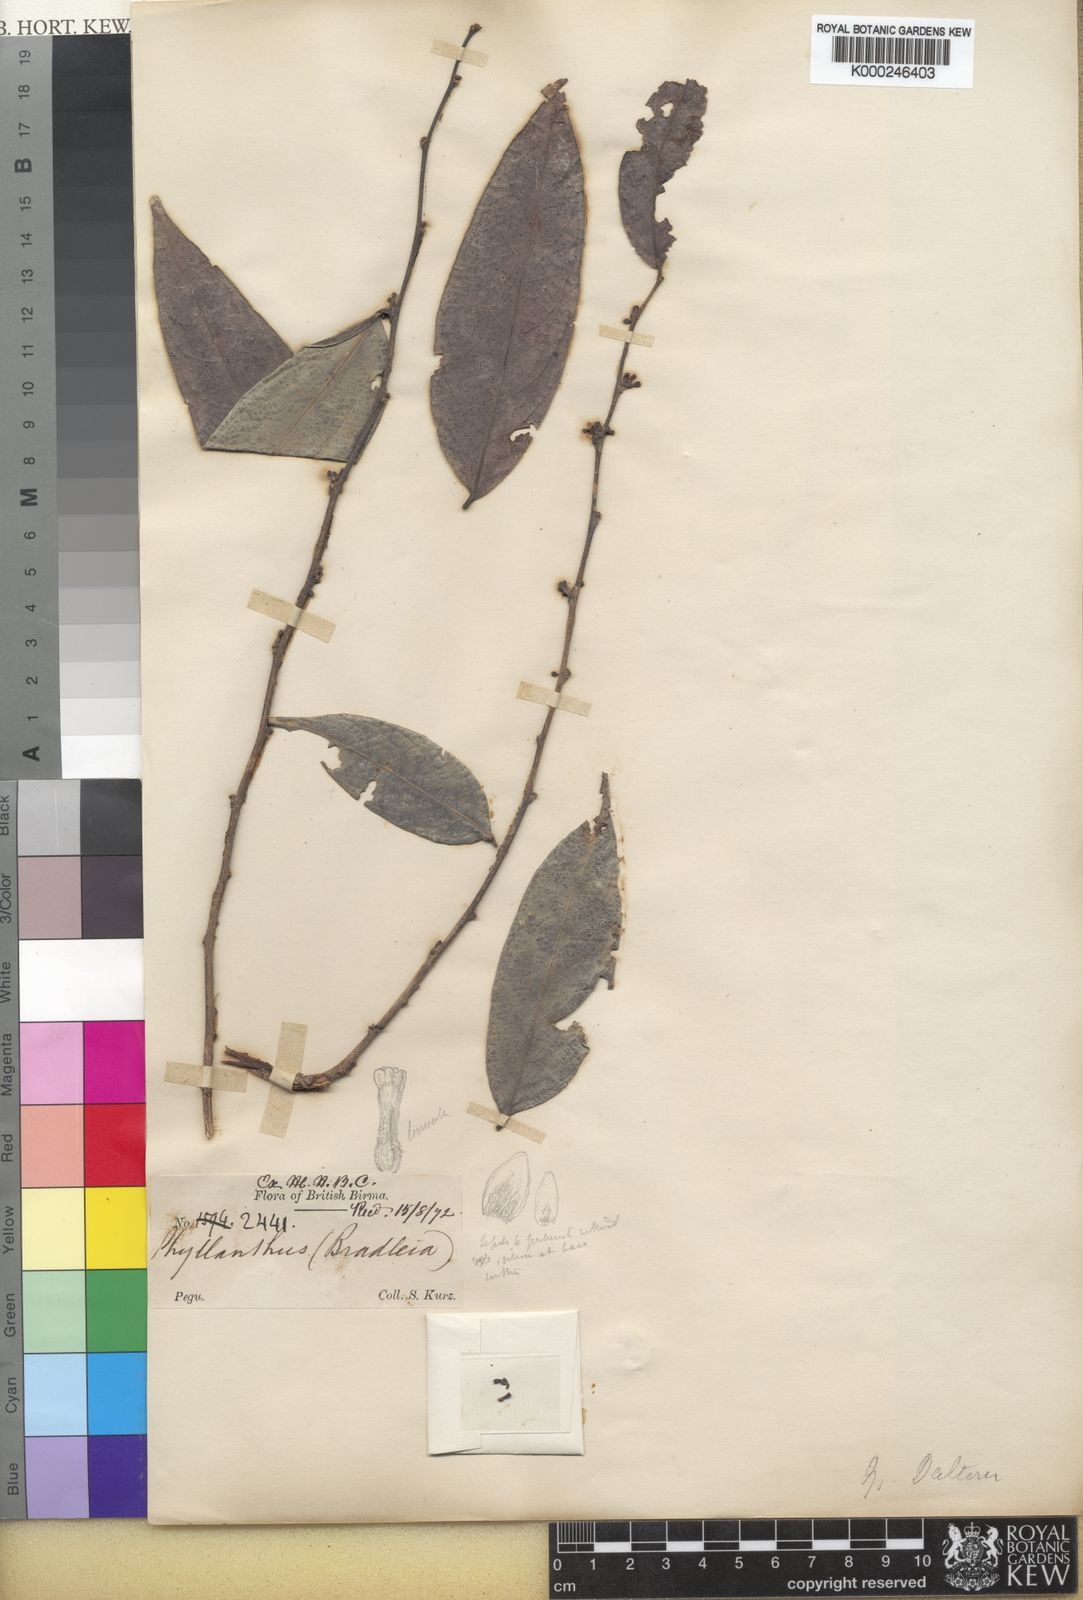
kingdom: Plantae
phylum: Tracheophyta
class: Magnoliopsida
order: Malpighiales
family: Phyllanthaceae
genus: Glochidion
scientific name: Glochidion
